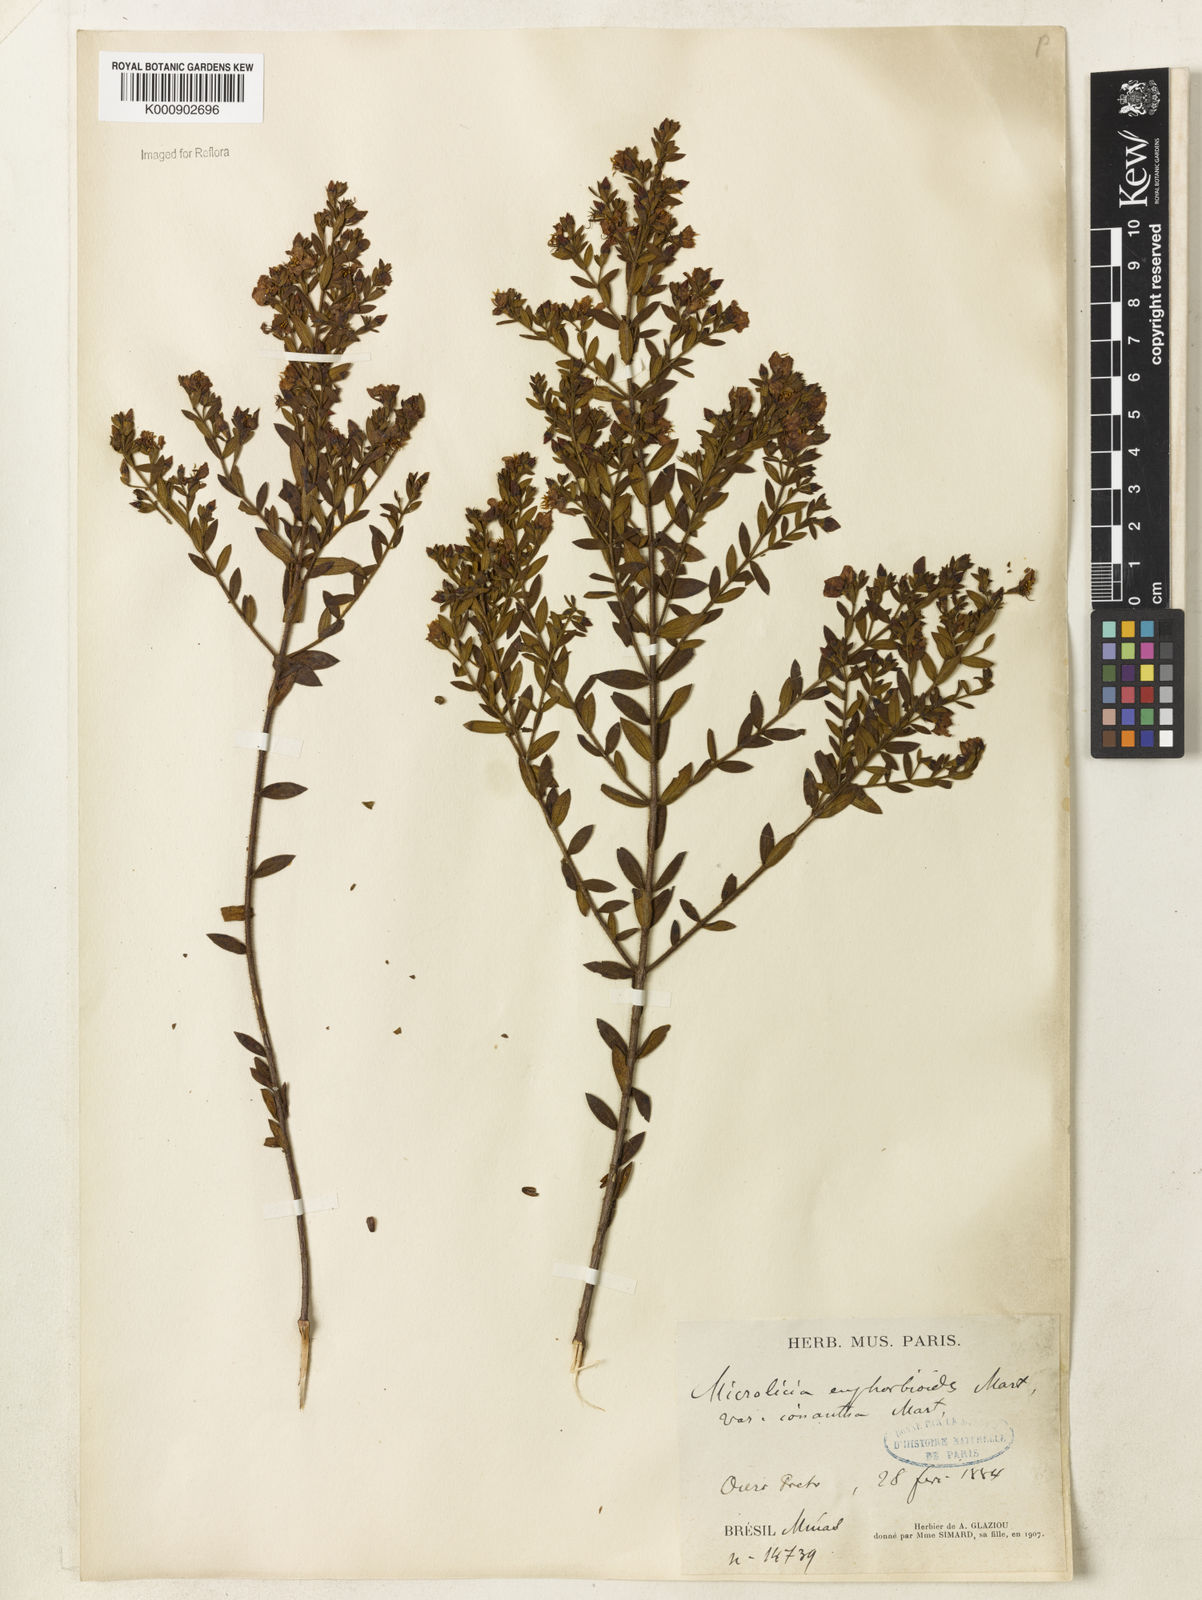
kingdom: Plantae
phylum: Tracheophyta
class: Magnoliopsida
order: Myrtales
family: Melastomataceae
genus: Microlicia
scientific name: Microlicia euphorbioides
